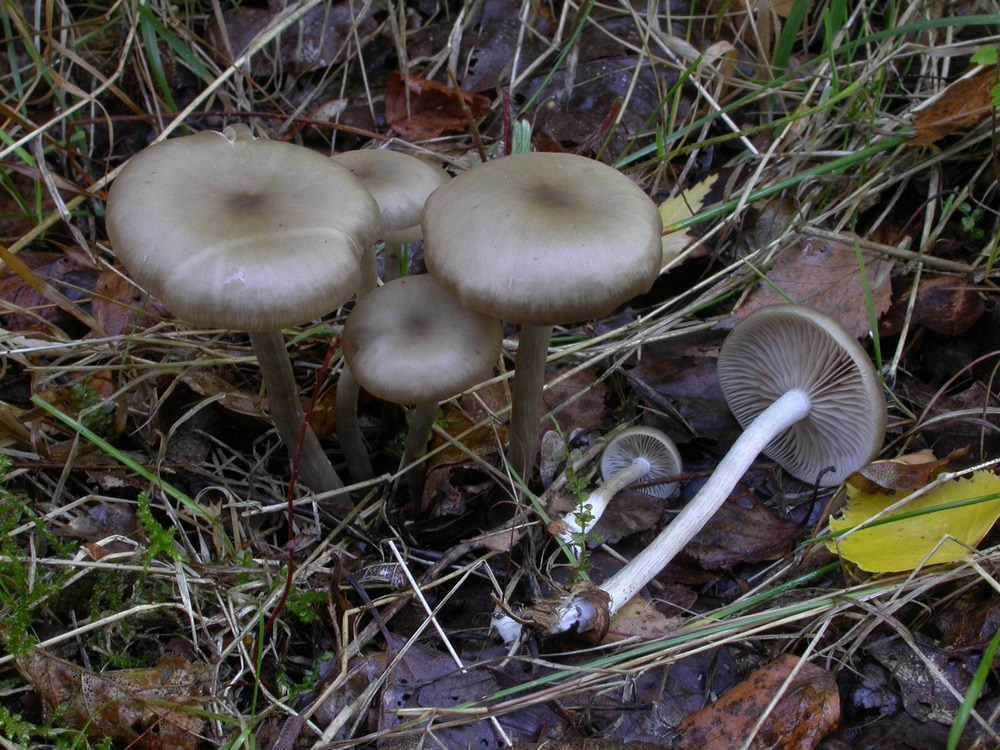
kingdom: Fungi
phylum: Basidiomycota
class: Agaricomycetes
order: Agaricales
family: Entolomataceae
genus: Entoloma
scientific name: Entoloma sericatum
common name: rank rødblad
